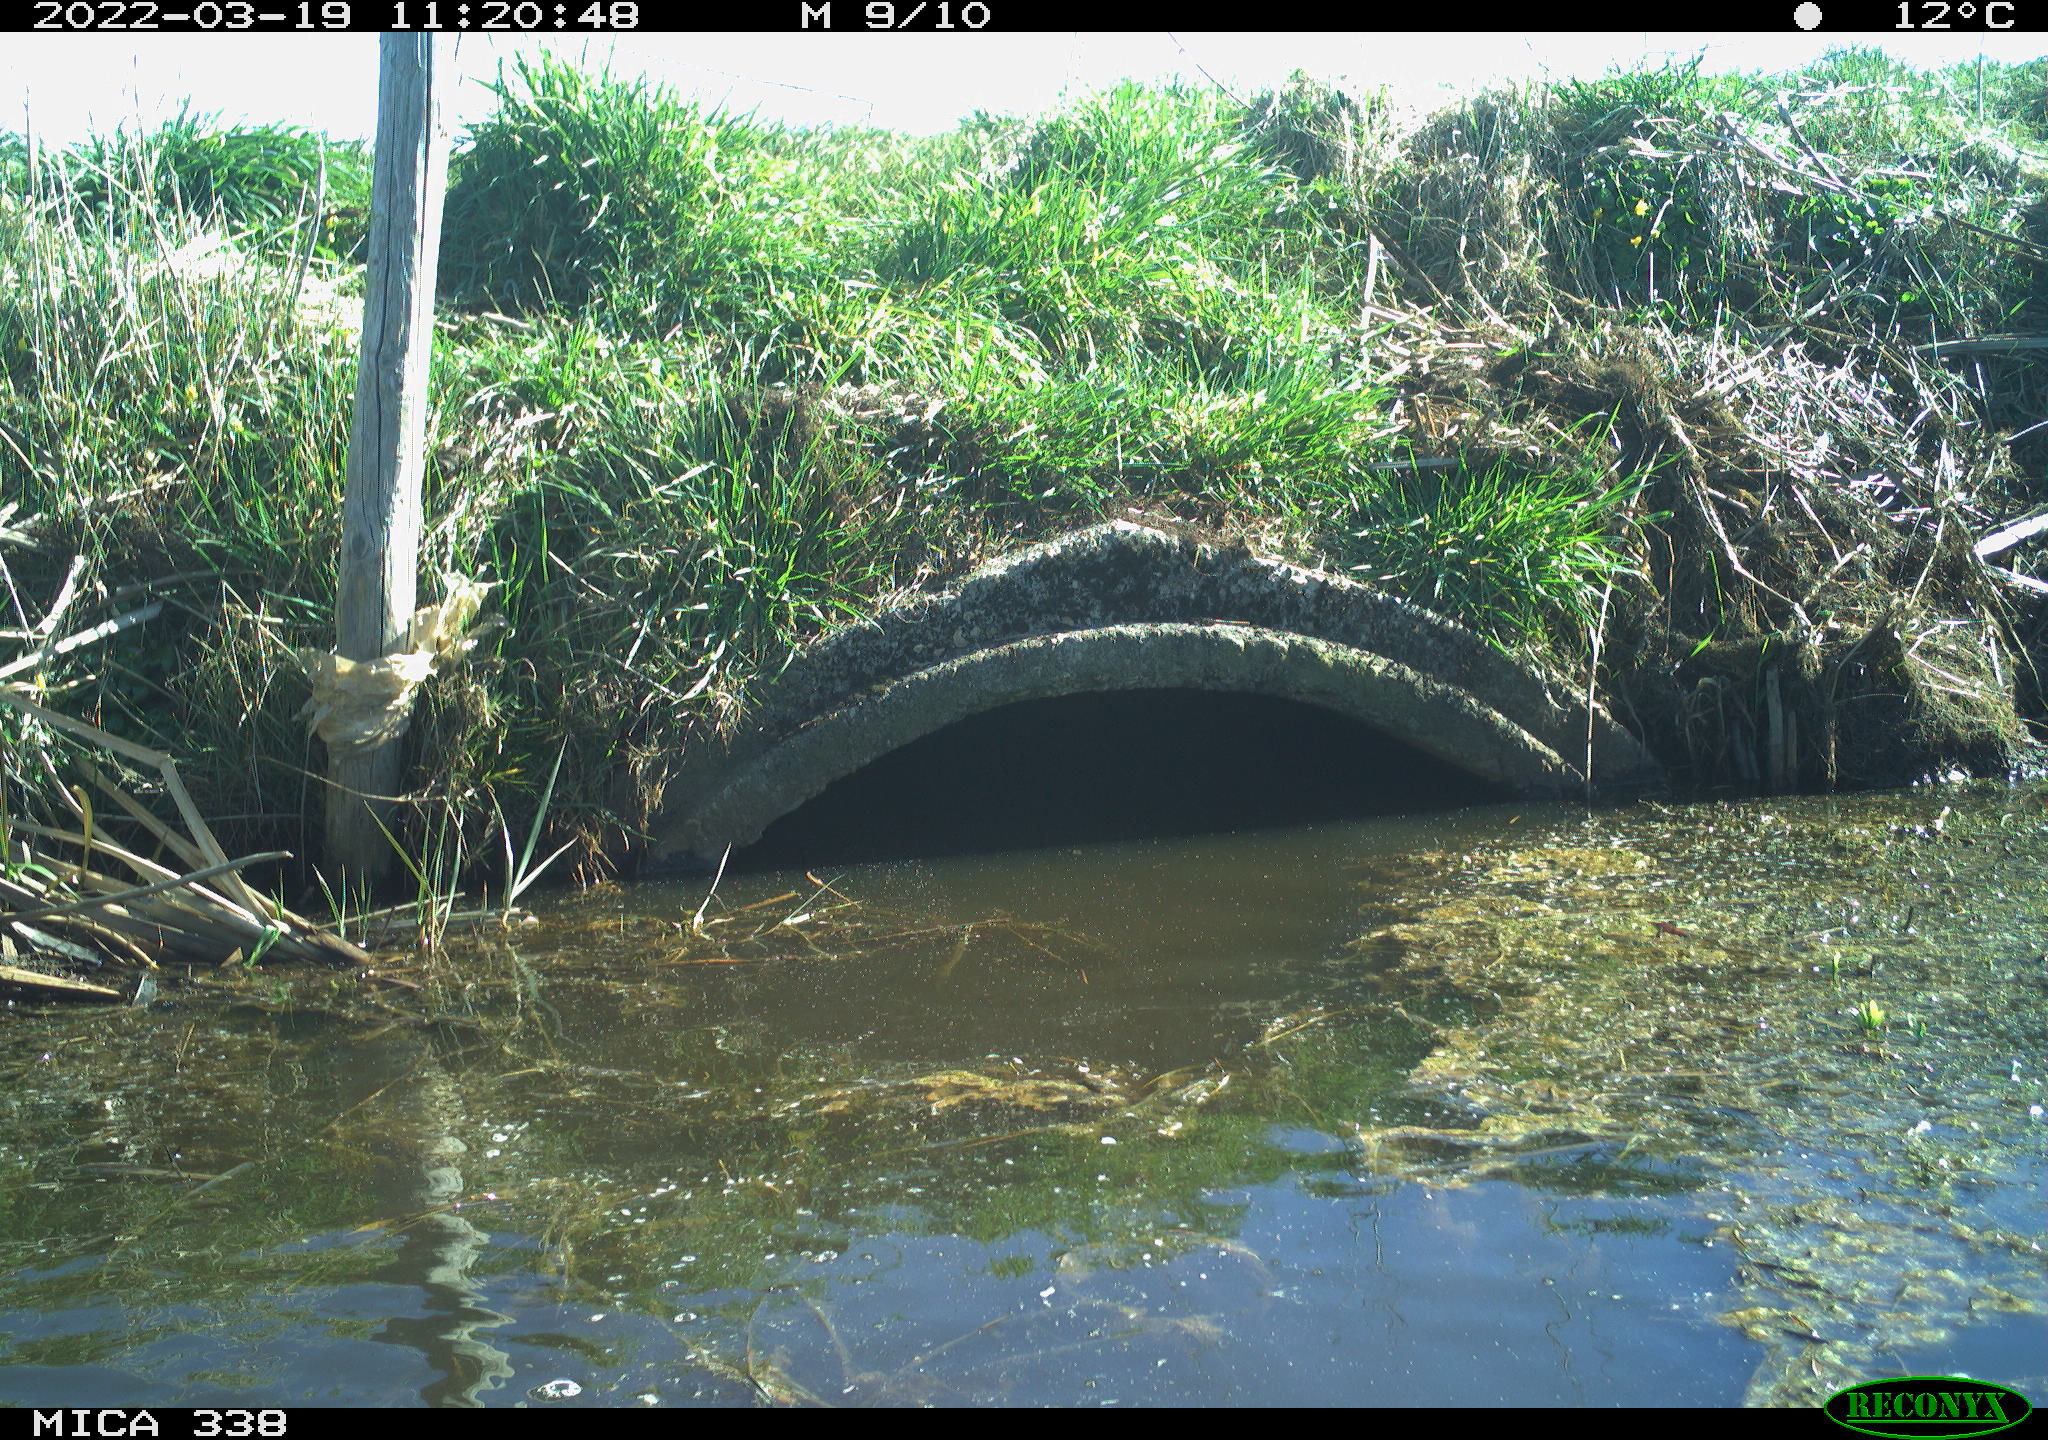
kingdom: Animalia
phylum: Chordata
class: Aves
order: Anseriformes
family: Anatidae
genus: Anas
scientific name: Anas platyrhynchos
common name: Mallard
